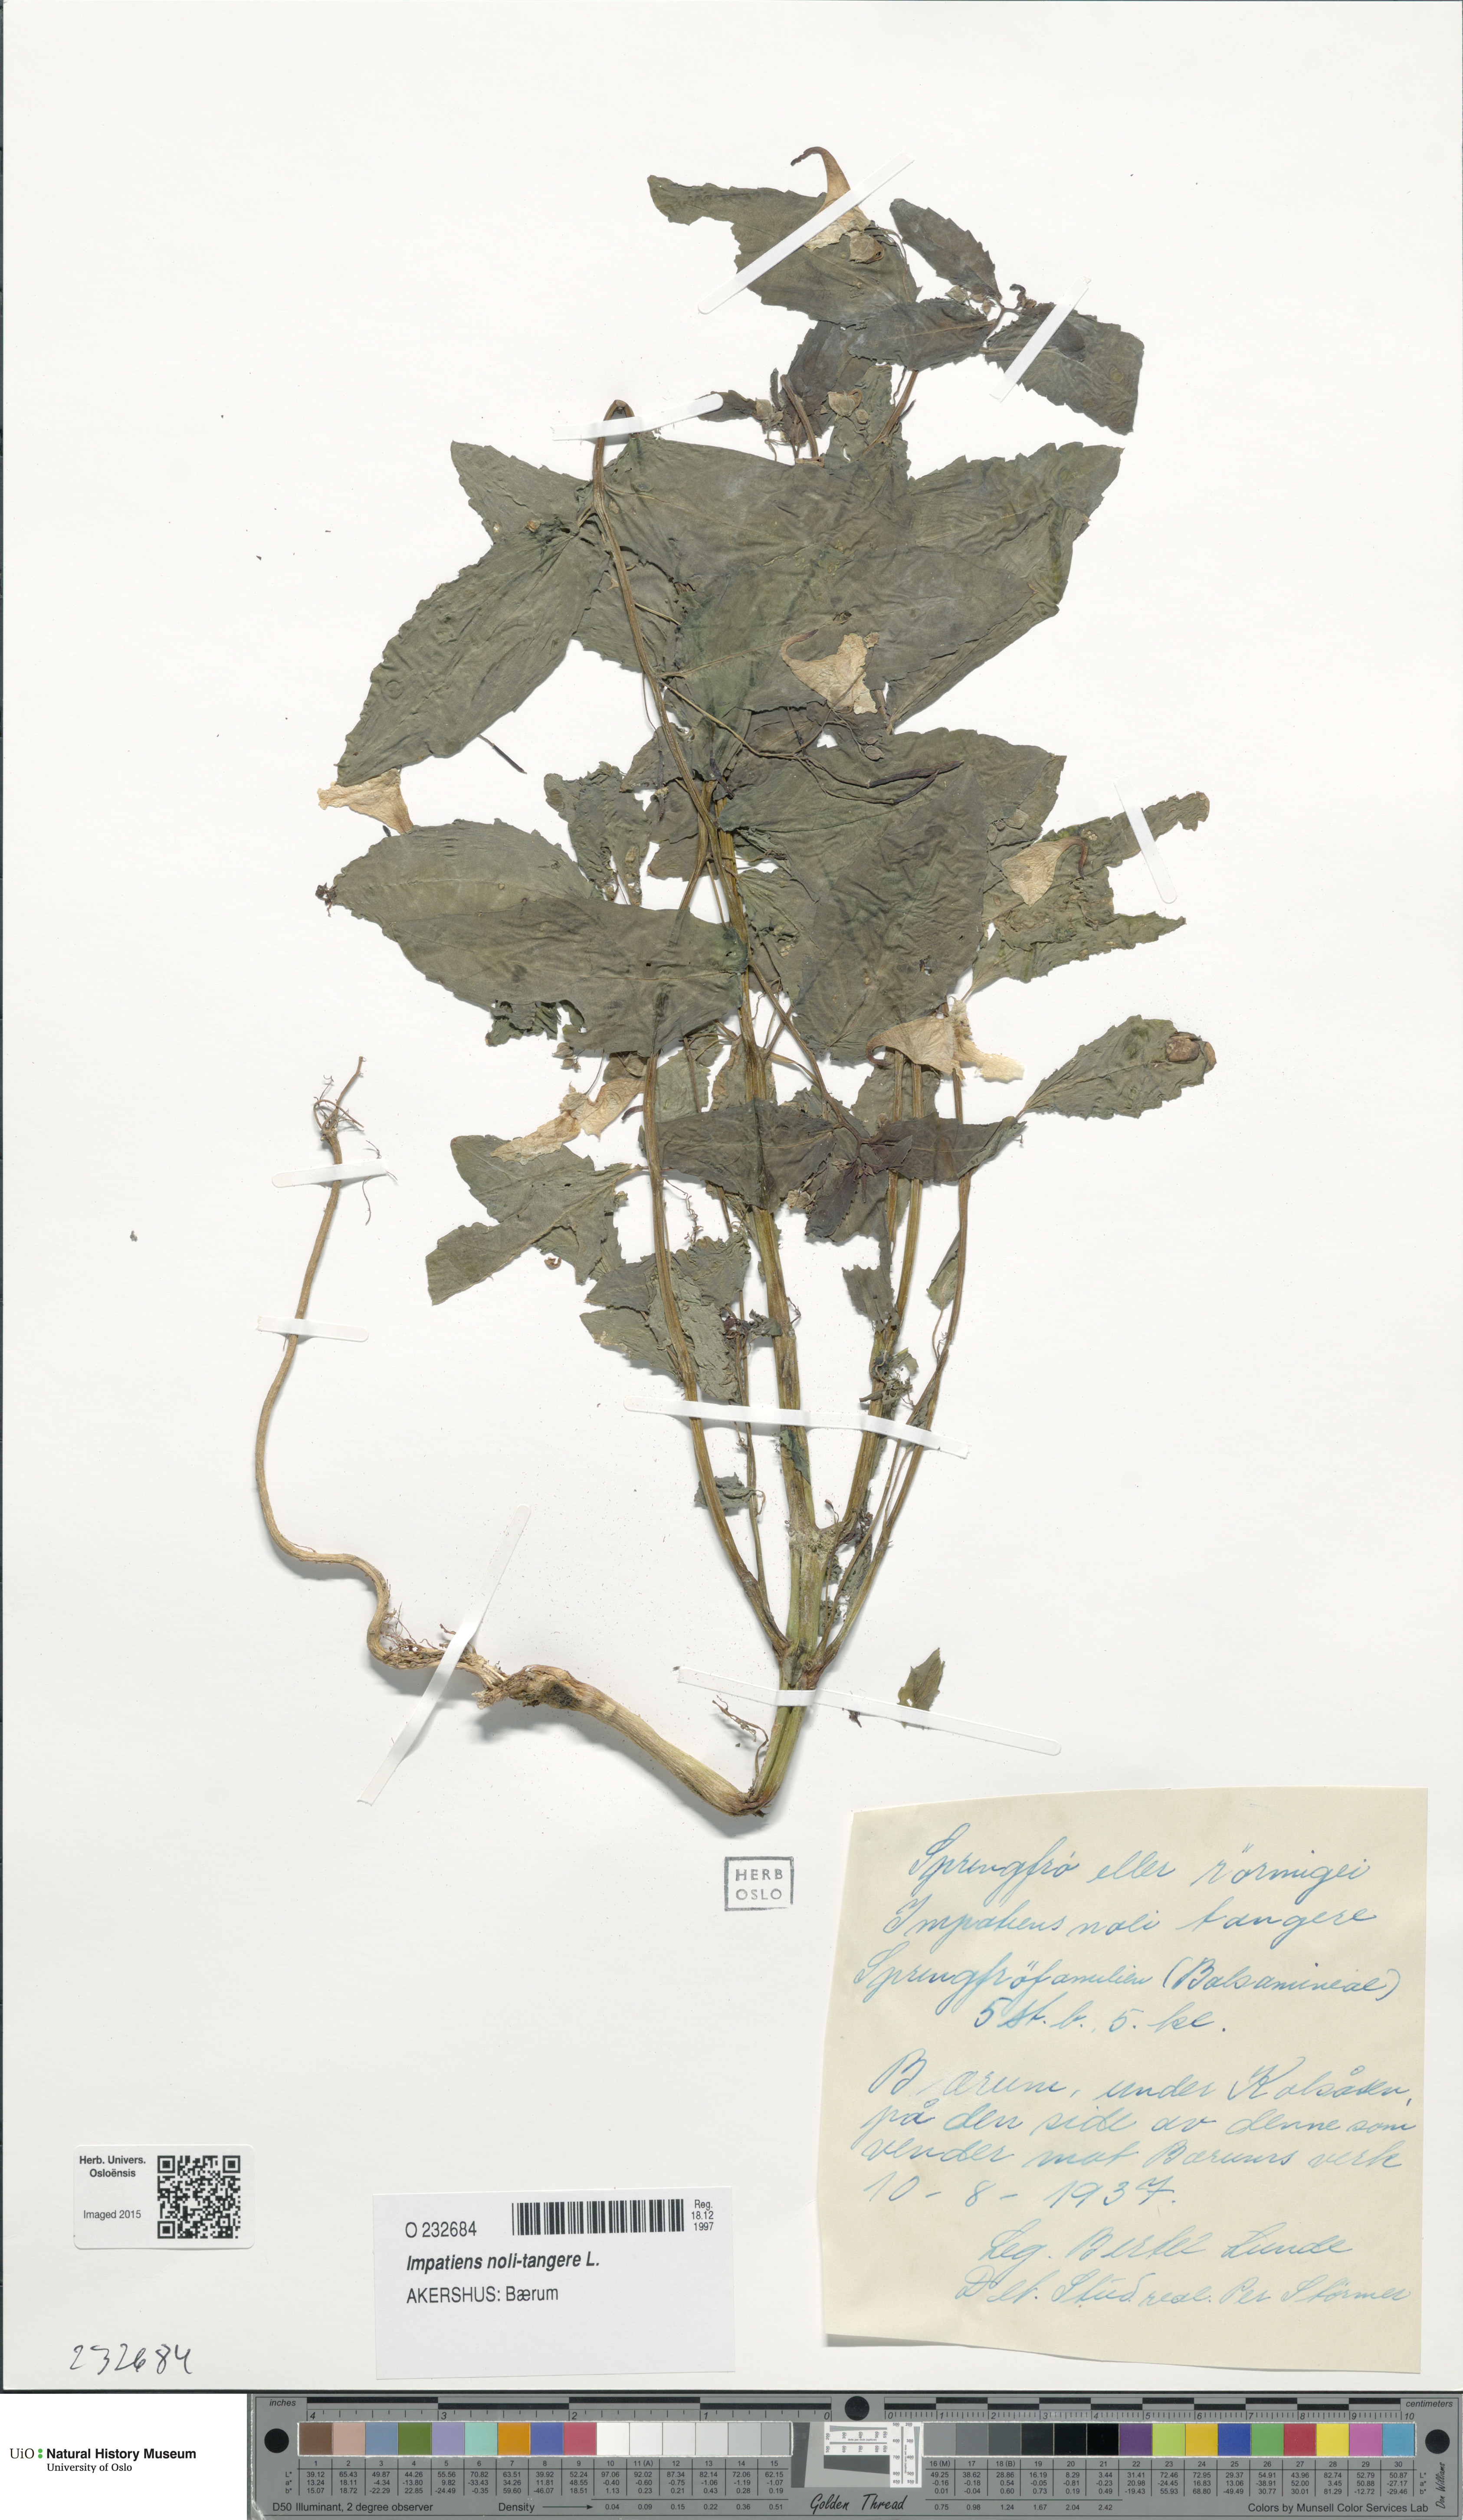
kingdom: Plantae
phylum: Tracheophyta
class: Magnoliopsida
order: Ericales
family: Balsaminaceae
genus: Impatiens
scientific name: Impatiens noli-tangere
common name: Touch-me-not balsam
